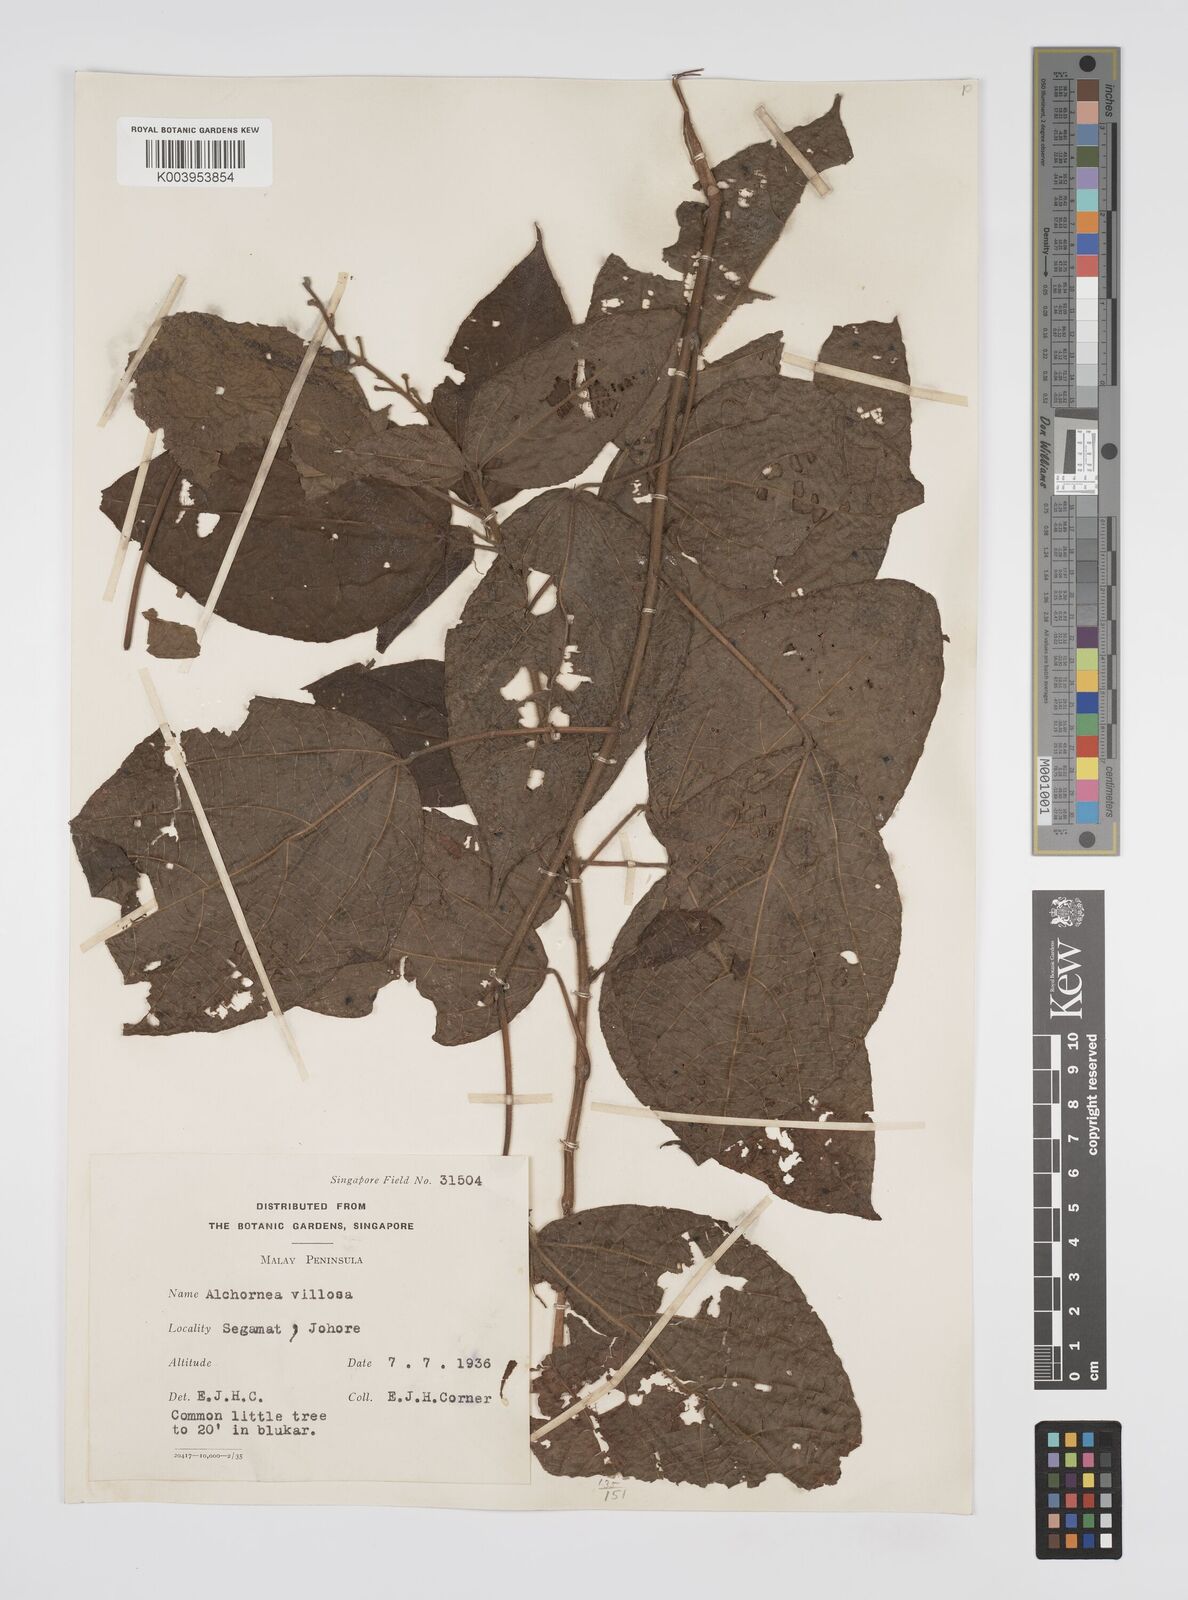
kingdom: Plantae
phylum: Tracheophyta
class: Magnoliopsida
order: Malpighiales
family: Euphorbiaceae
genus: Alchornea
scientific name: Alchornea tiliifolia
